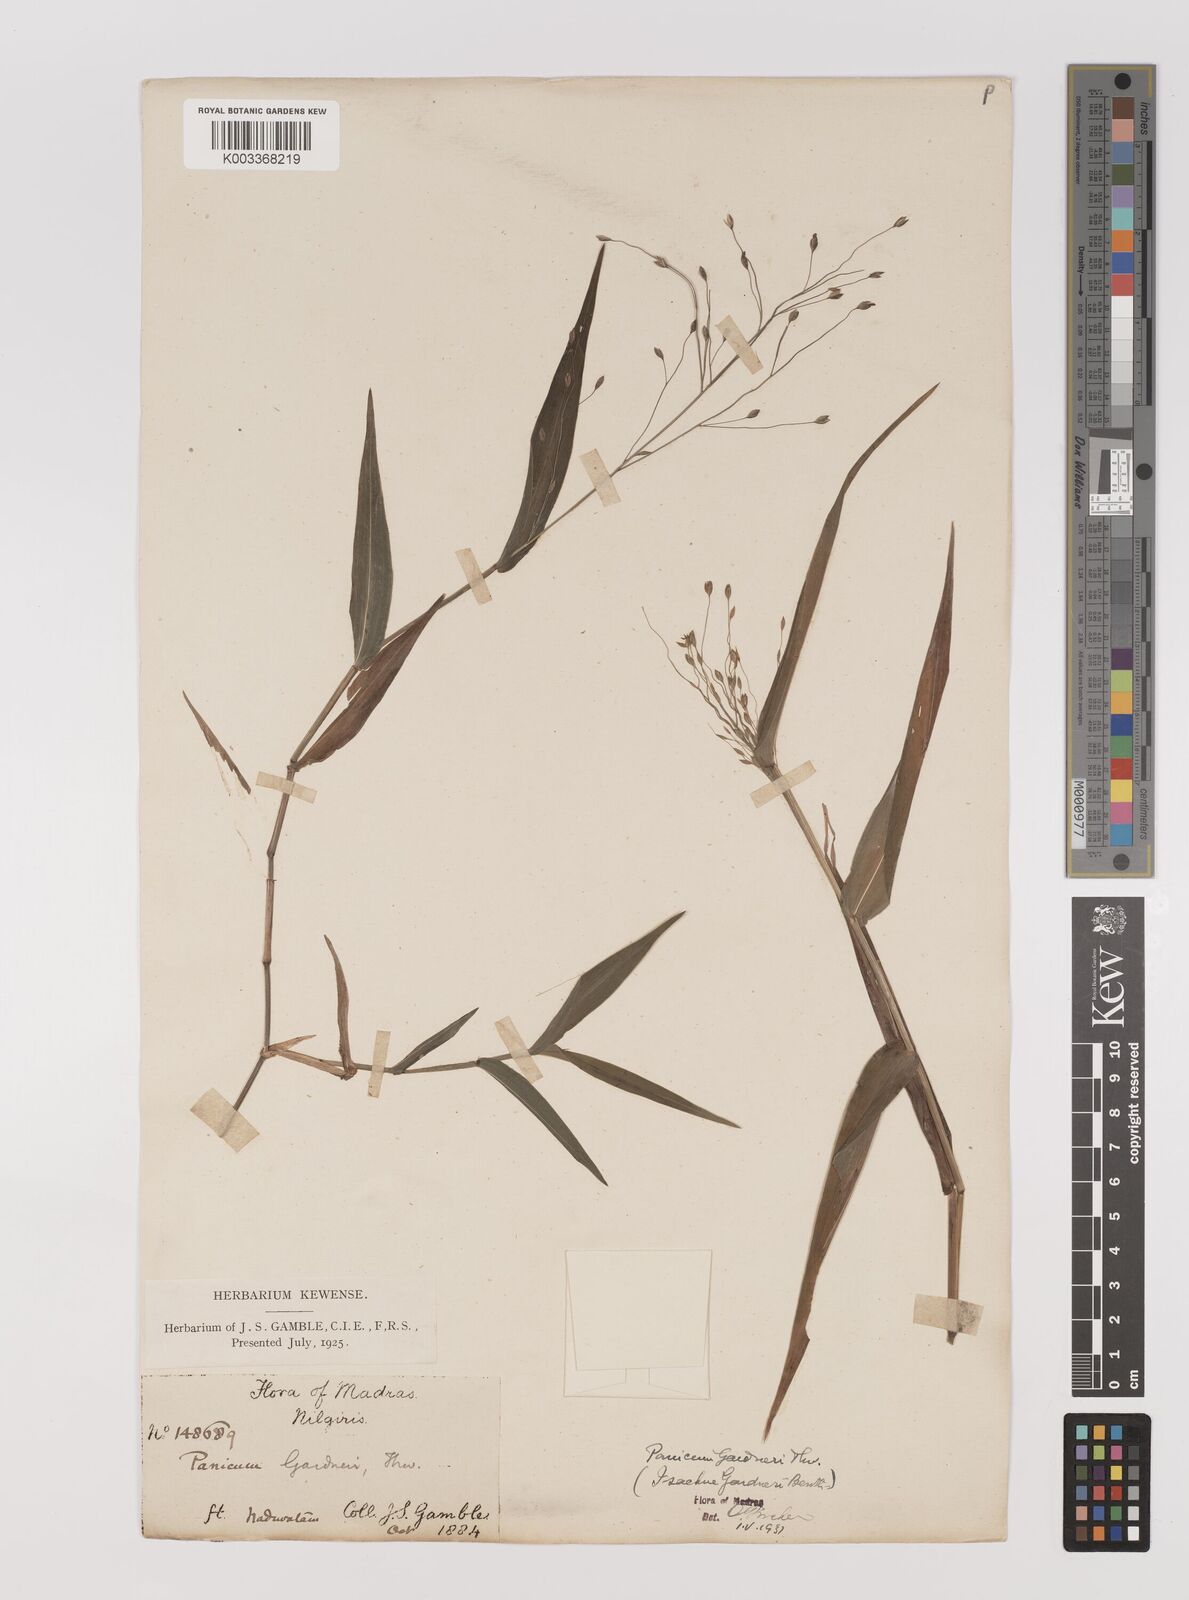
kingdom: Plantae
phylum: Tracheophyta
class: Liliopsida
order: Poales
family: Poaceae
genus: Panicum
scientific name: Panicum gardneri
